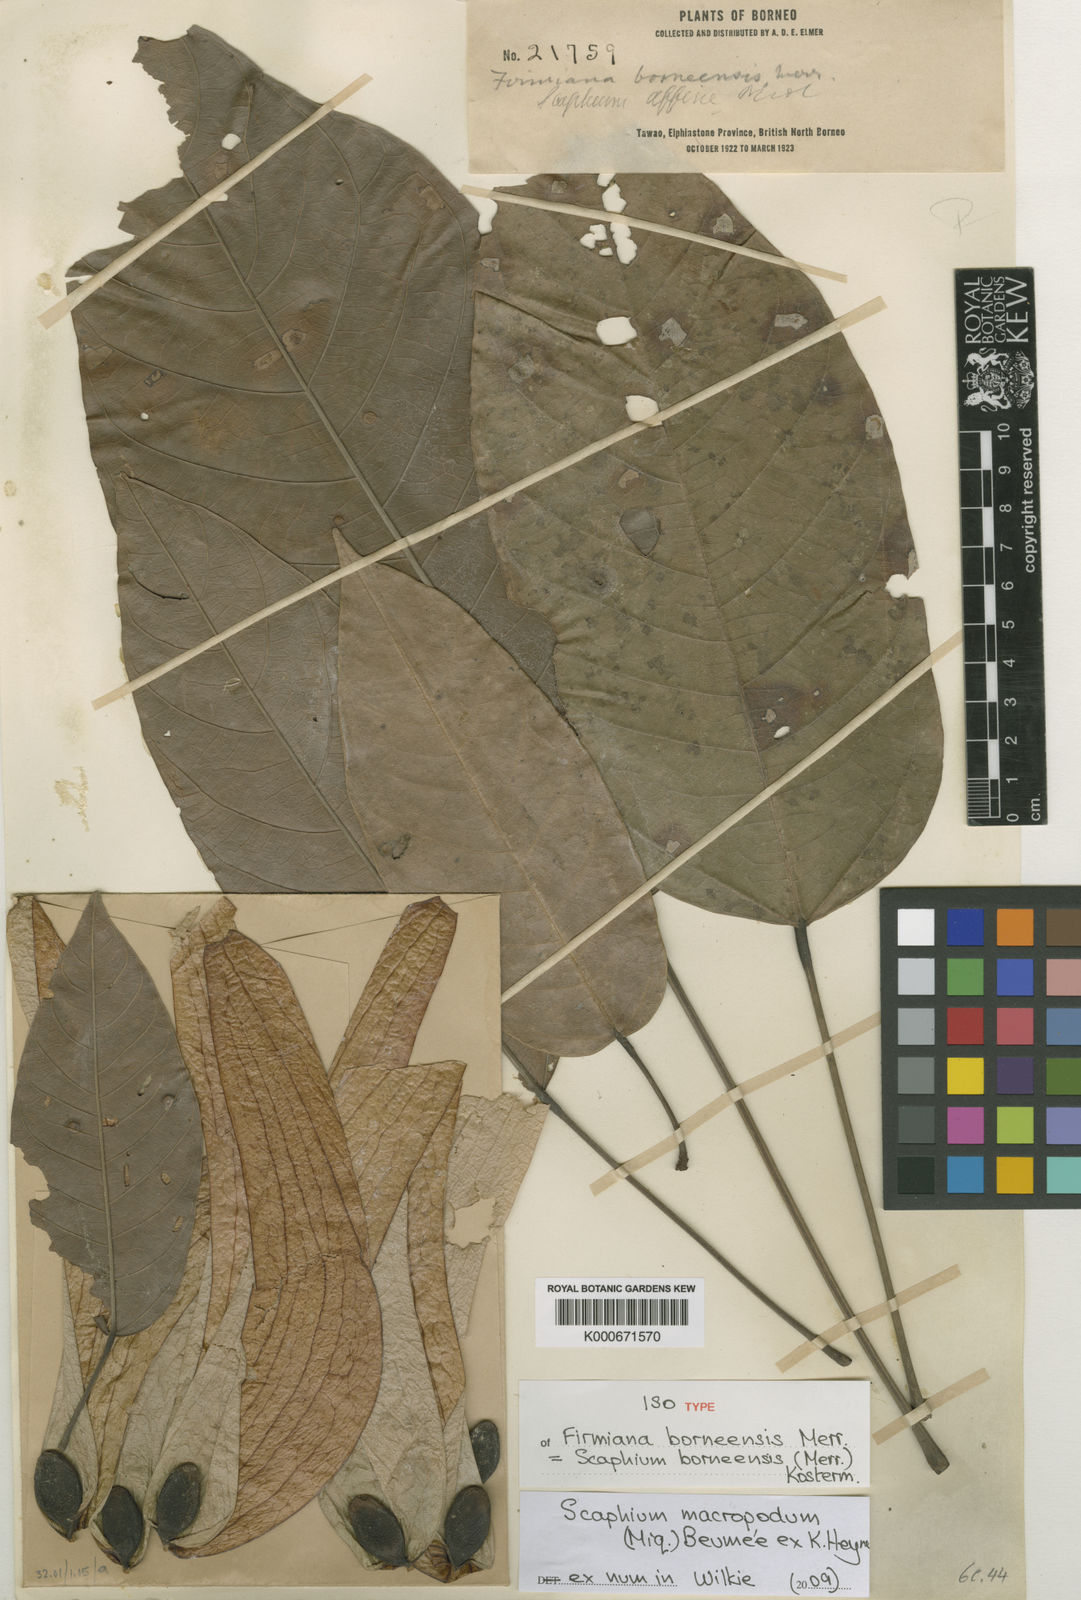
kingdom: Plantae
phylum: Tracheophyta
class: Magnoliopsida
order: Malvales
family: Malvaceae
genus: Scaphium
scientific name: Scaphium macropodum
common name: Malva nut
